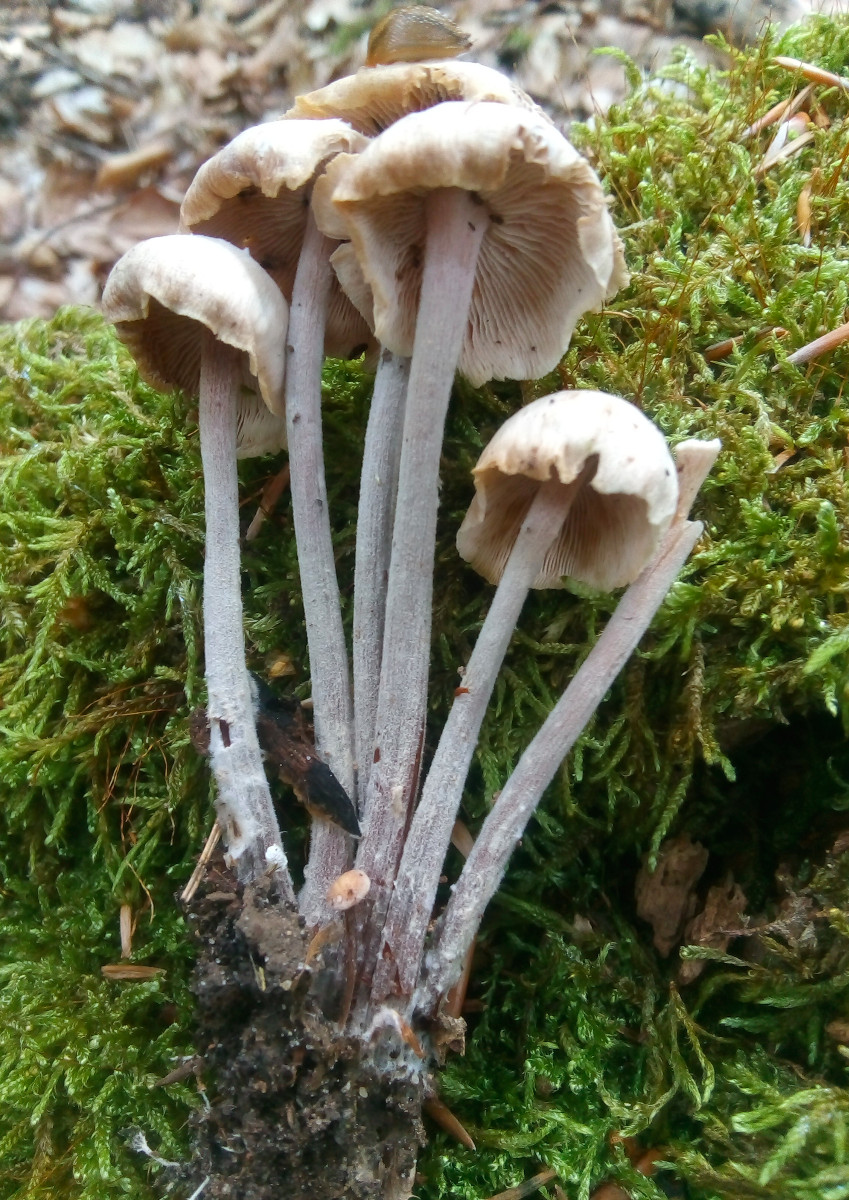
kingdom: Fungi
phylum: Basidiomycota
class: Agaricomycetes
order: Agaricales
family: Omphalotaceae
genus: Collybiopsis
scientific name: Collybiopsis confluens
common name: knippe-fladhat
